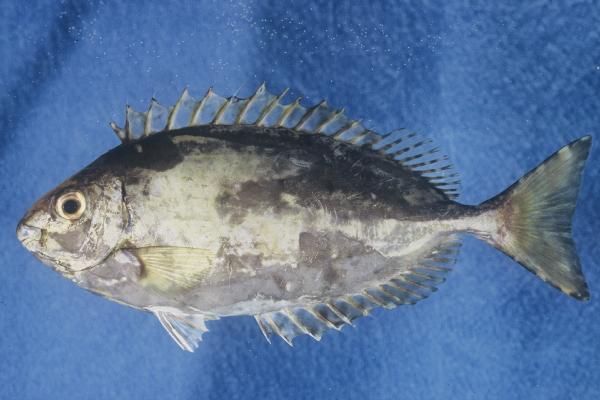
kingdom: Animalia
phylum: Chordata
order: Perciformes
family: Siganidae
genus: Siganus
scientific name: Siganus luridus
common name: Dusky spinefoot
